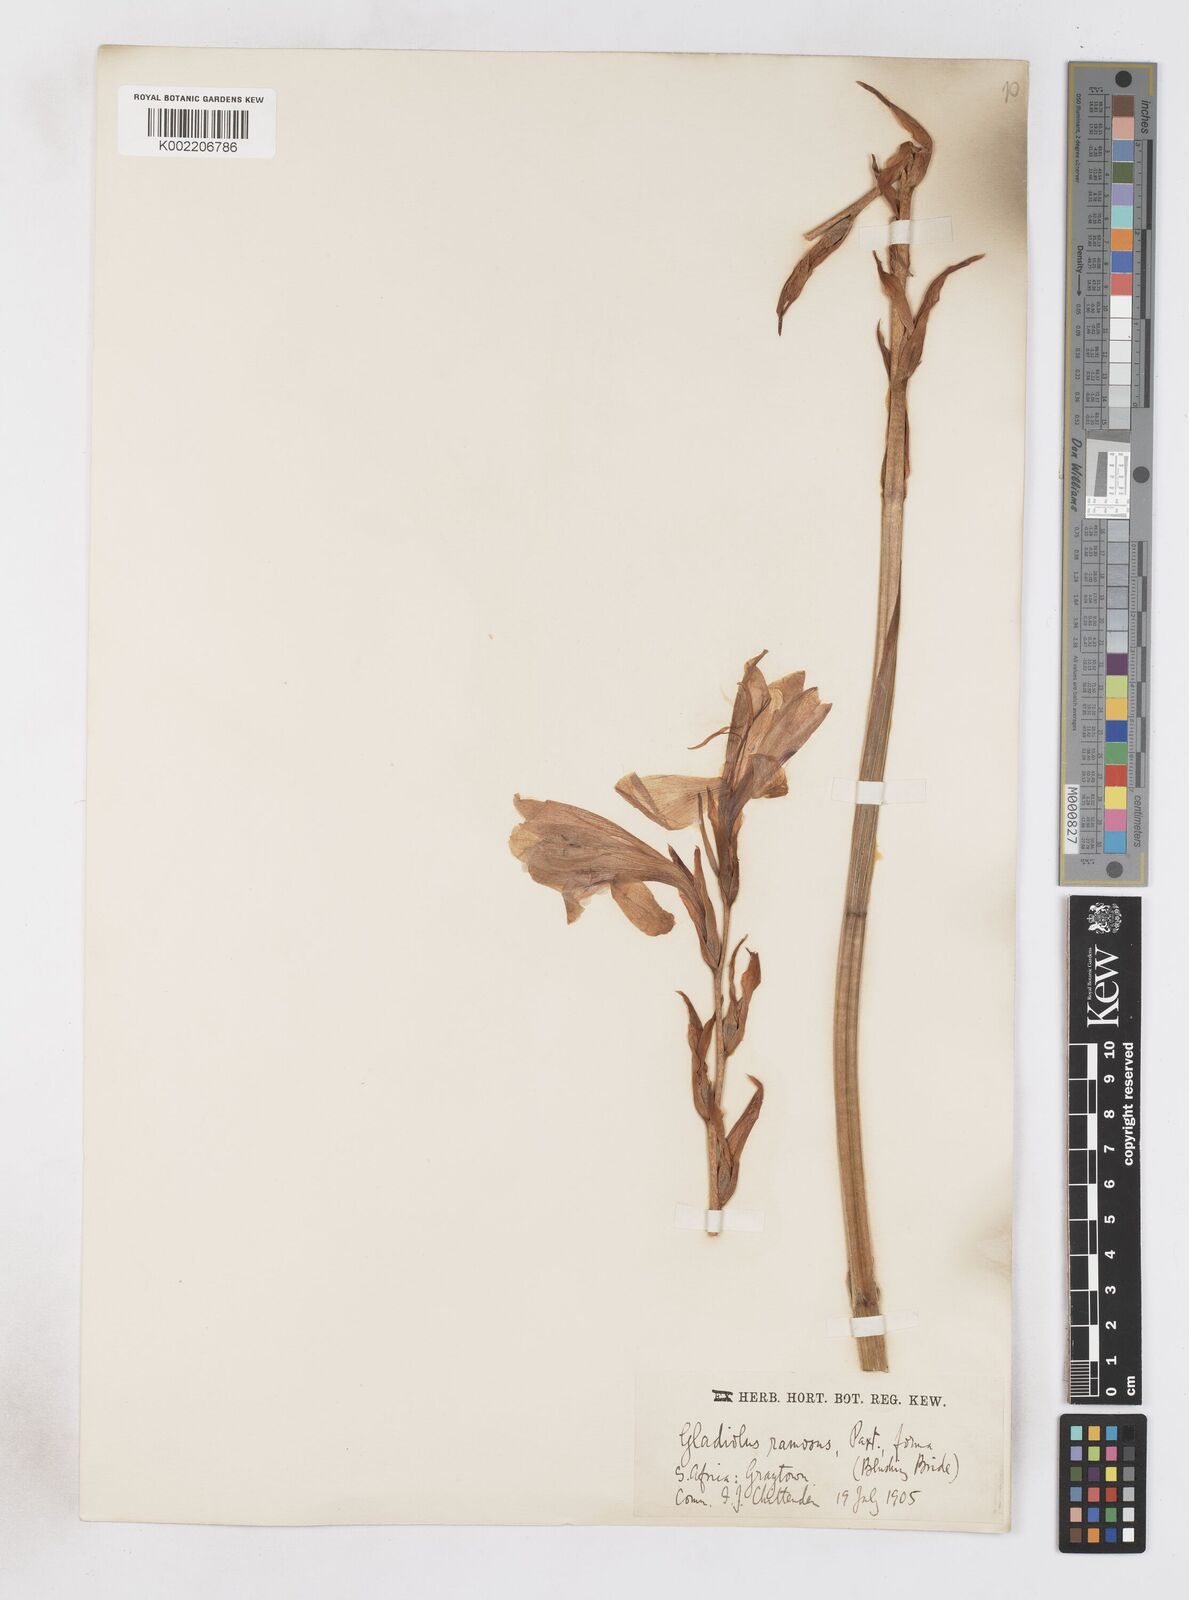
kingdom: Plantae
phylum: Tracheophyta
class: Liliopsida
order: Asparagales
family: Iridaceae
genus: Ixia
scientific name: Ixia scillaris
